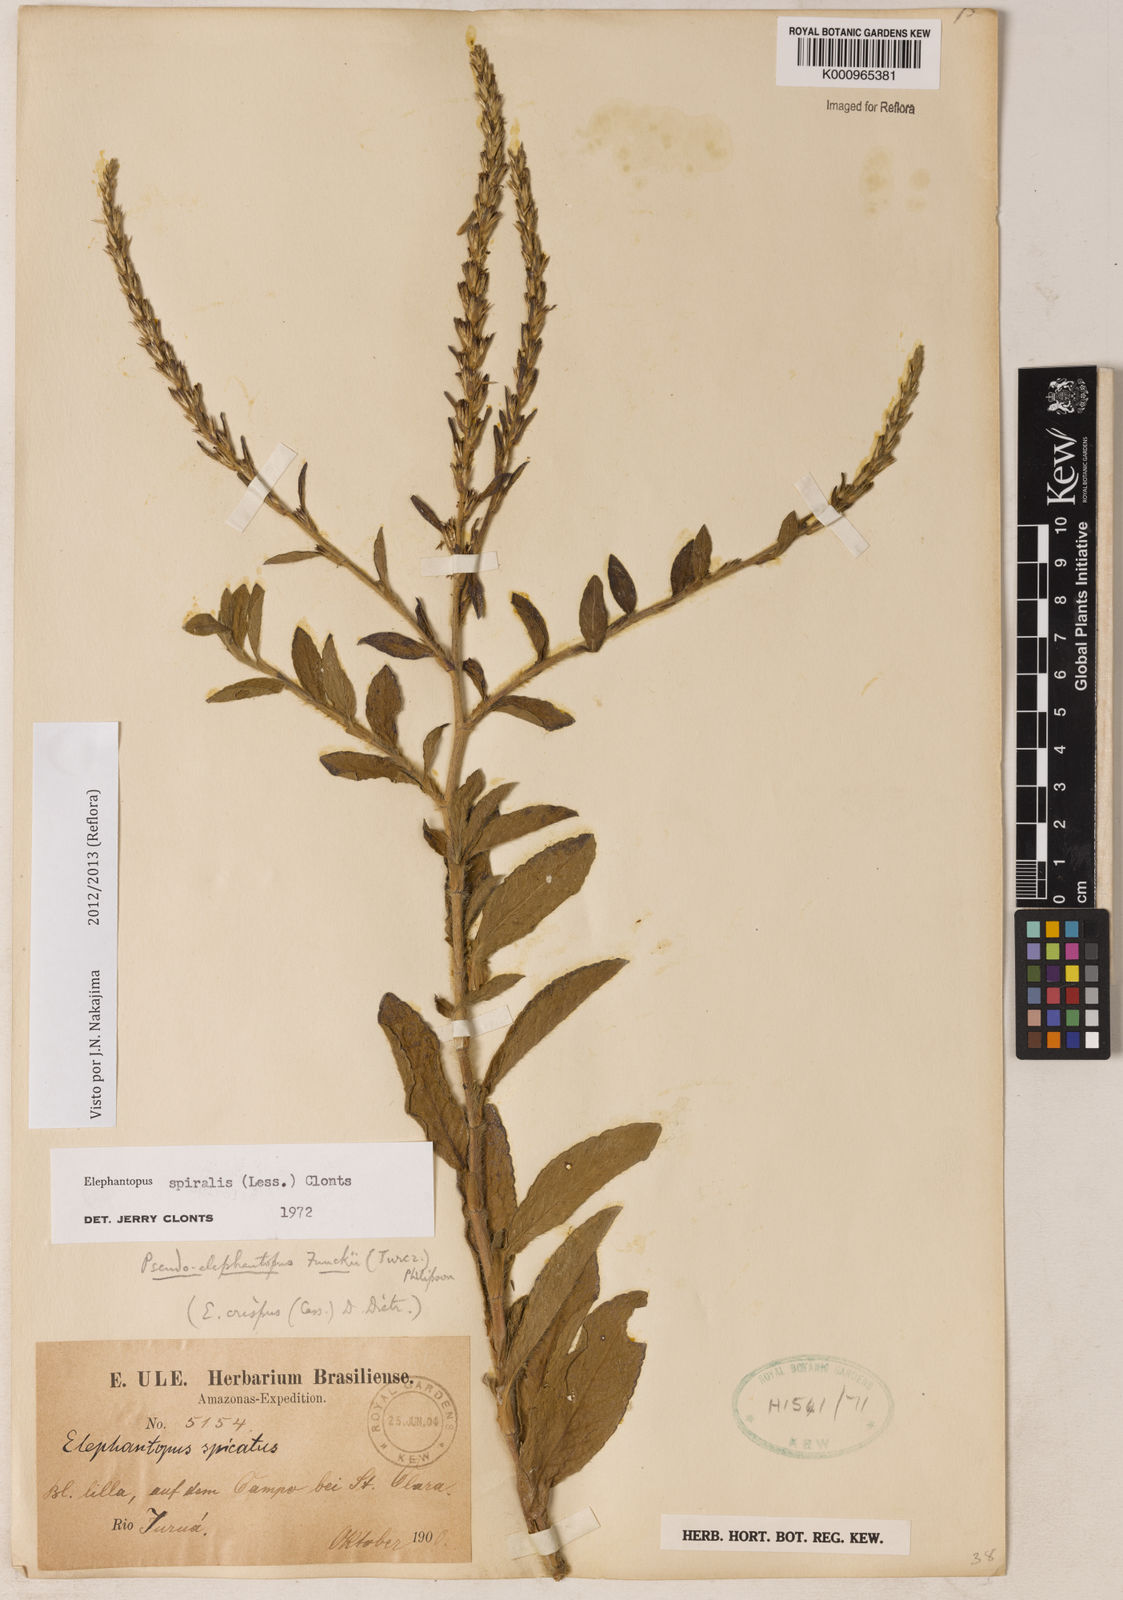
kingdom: Plantae
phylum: Tracheophyta
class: Magnoliopsida
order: Asterales
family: Asteraceae
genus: Pseudelephantopus
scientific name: Pseudelephantopus spiralis
